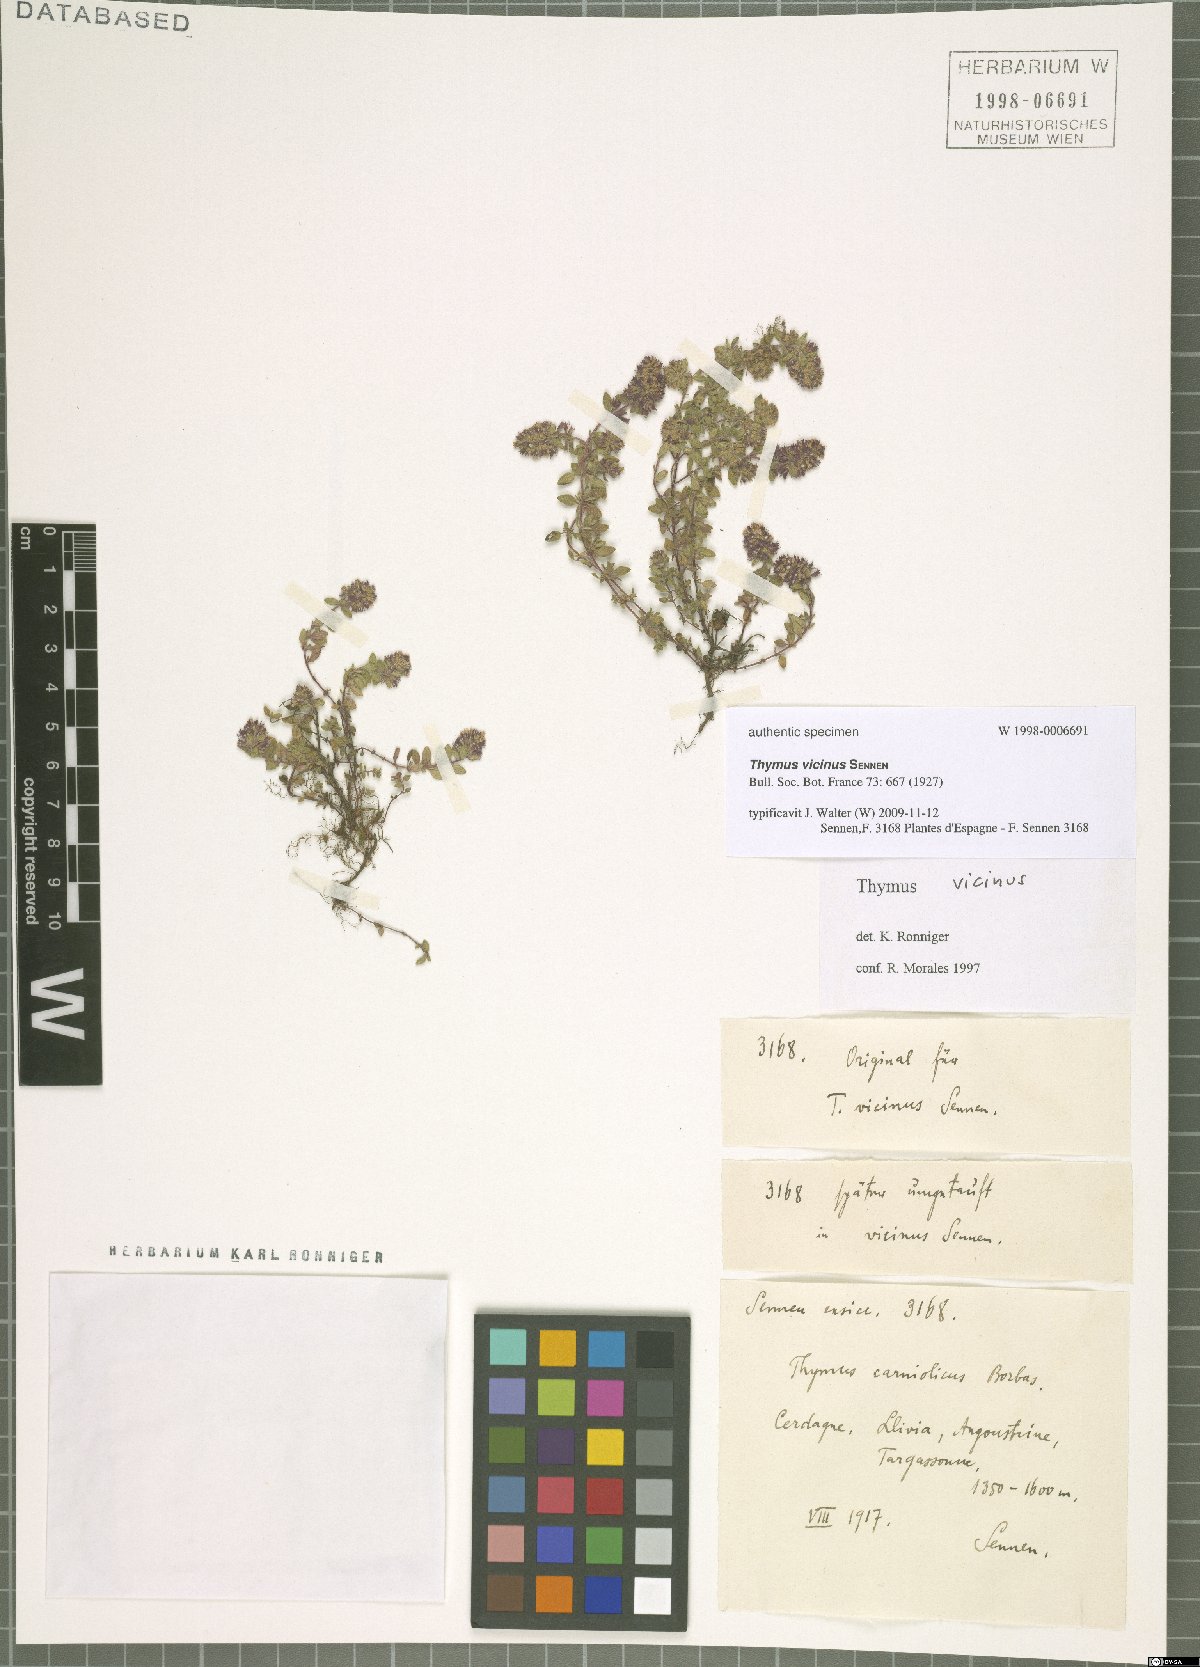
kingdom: Plantae
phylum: Tracheophyta
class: Magnoliopsida
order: Lamiales
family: Lamiaceae
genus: Thymus
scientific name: Thymus vicinus
